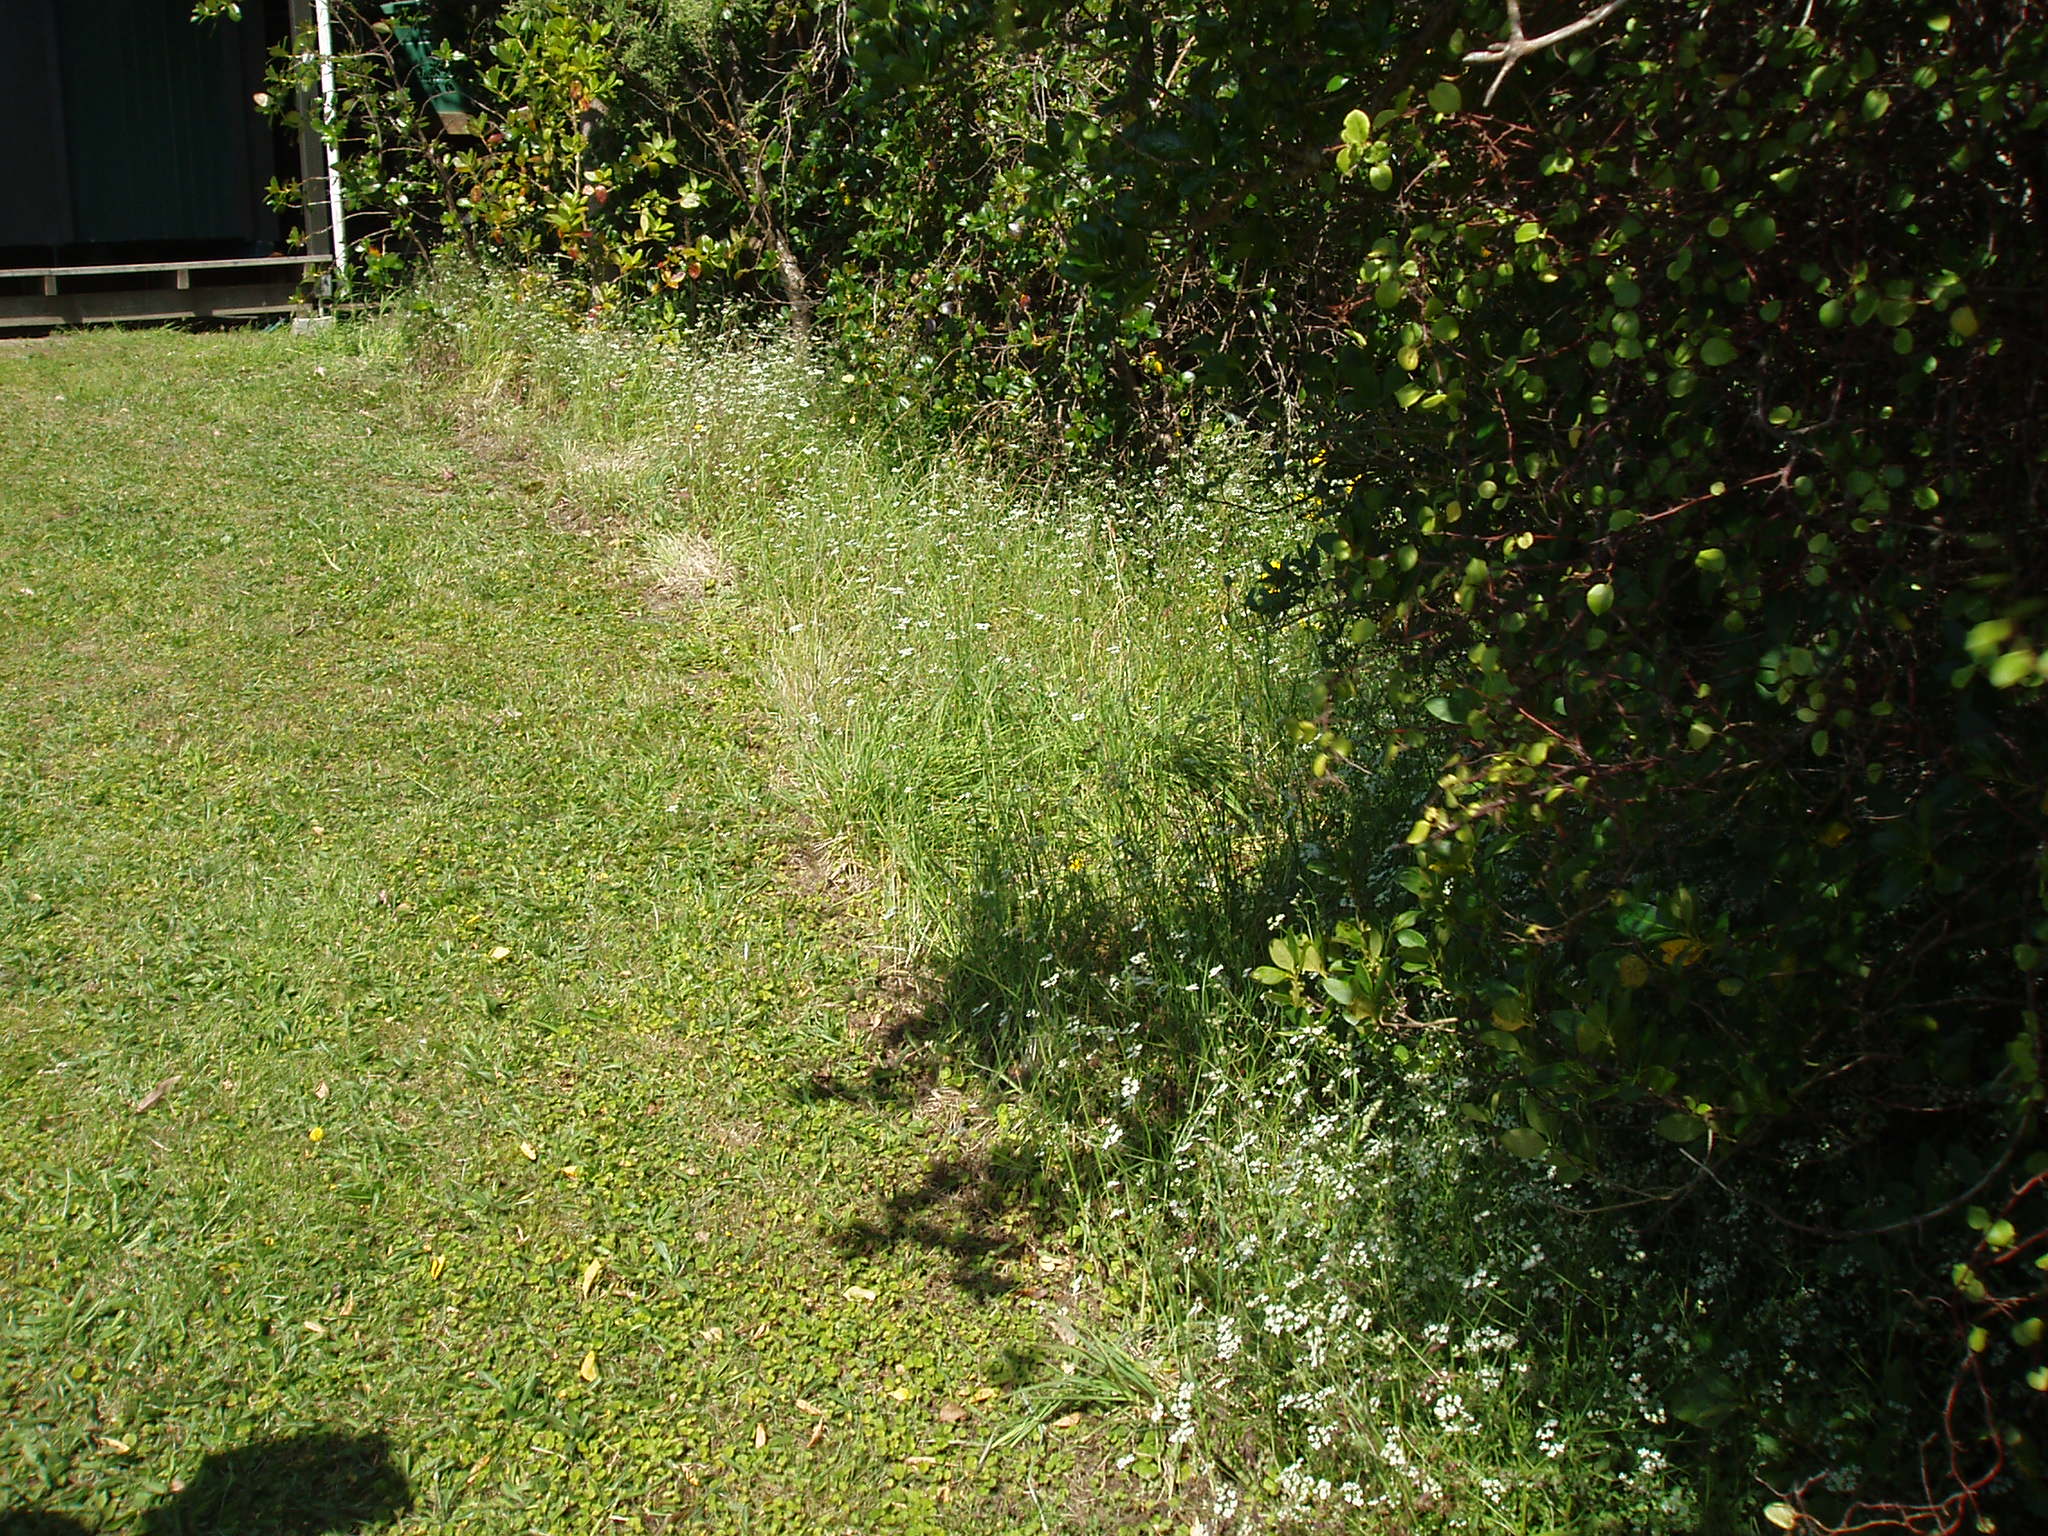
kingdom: Plantae
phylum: Tracheophyta
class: Magnoliopsida
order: Apiales
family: Apiaceae
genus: Torilis
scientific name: Torilis arvensis
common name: Spreading hedge-parsley
